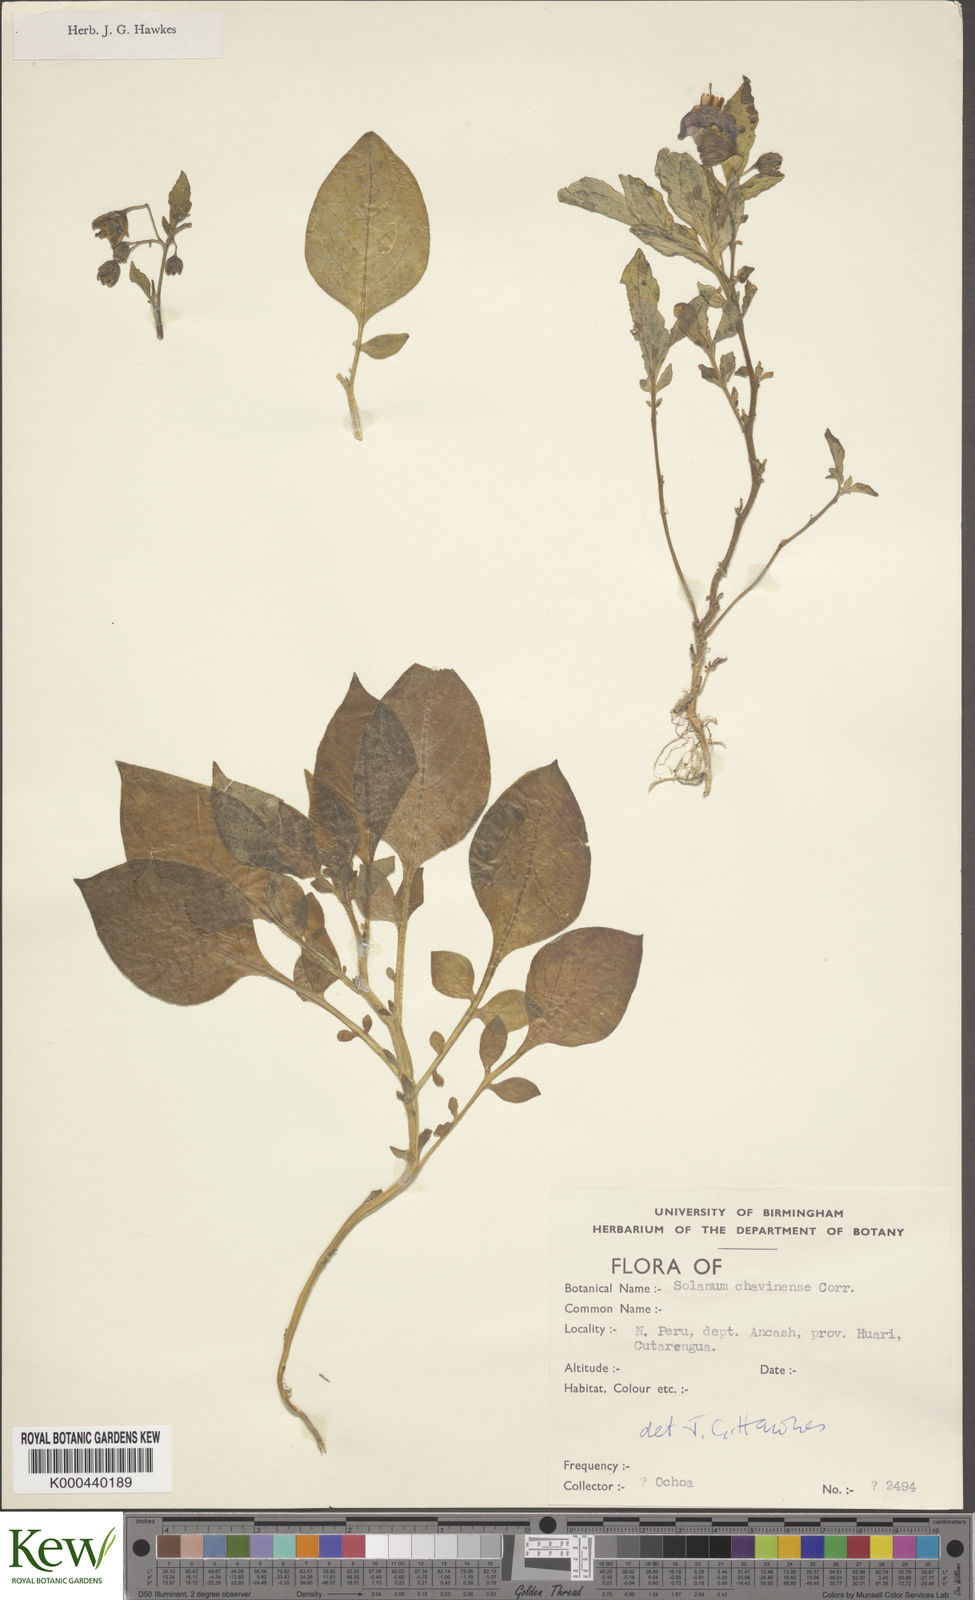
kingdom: Plantae
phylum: Tracheophyta
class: Magnoliopsida
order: Solanales
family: Solanaceae
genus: Solanum
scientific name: Solanum dolichocremastrum
